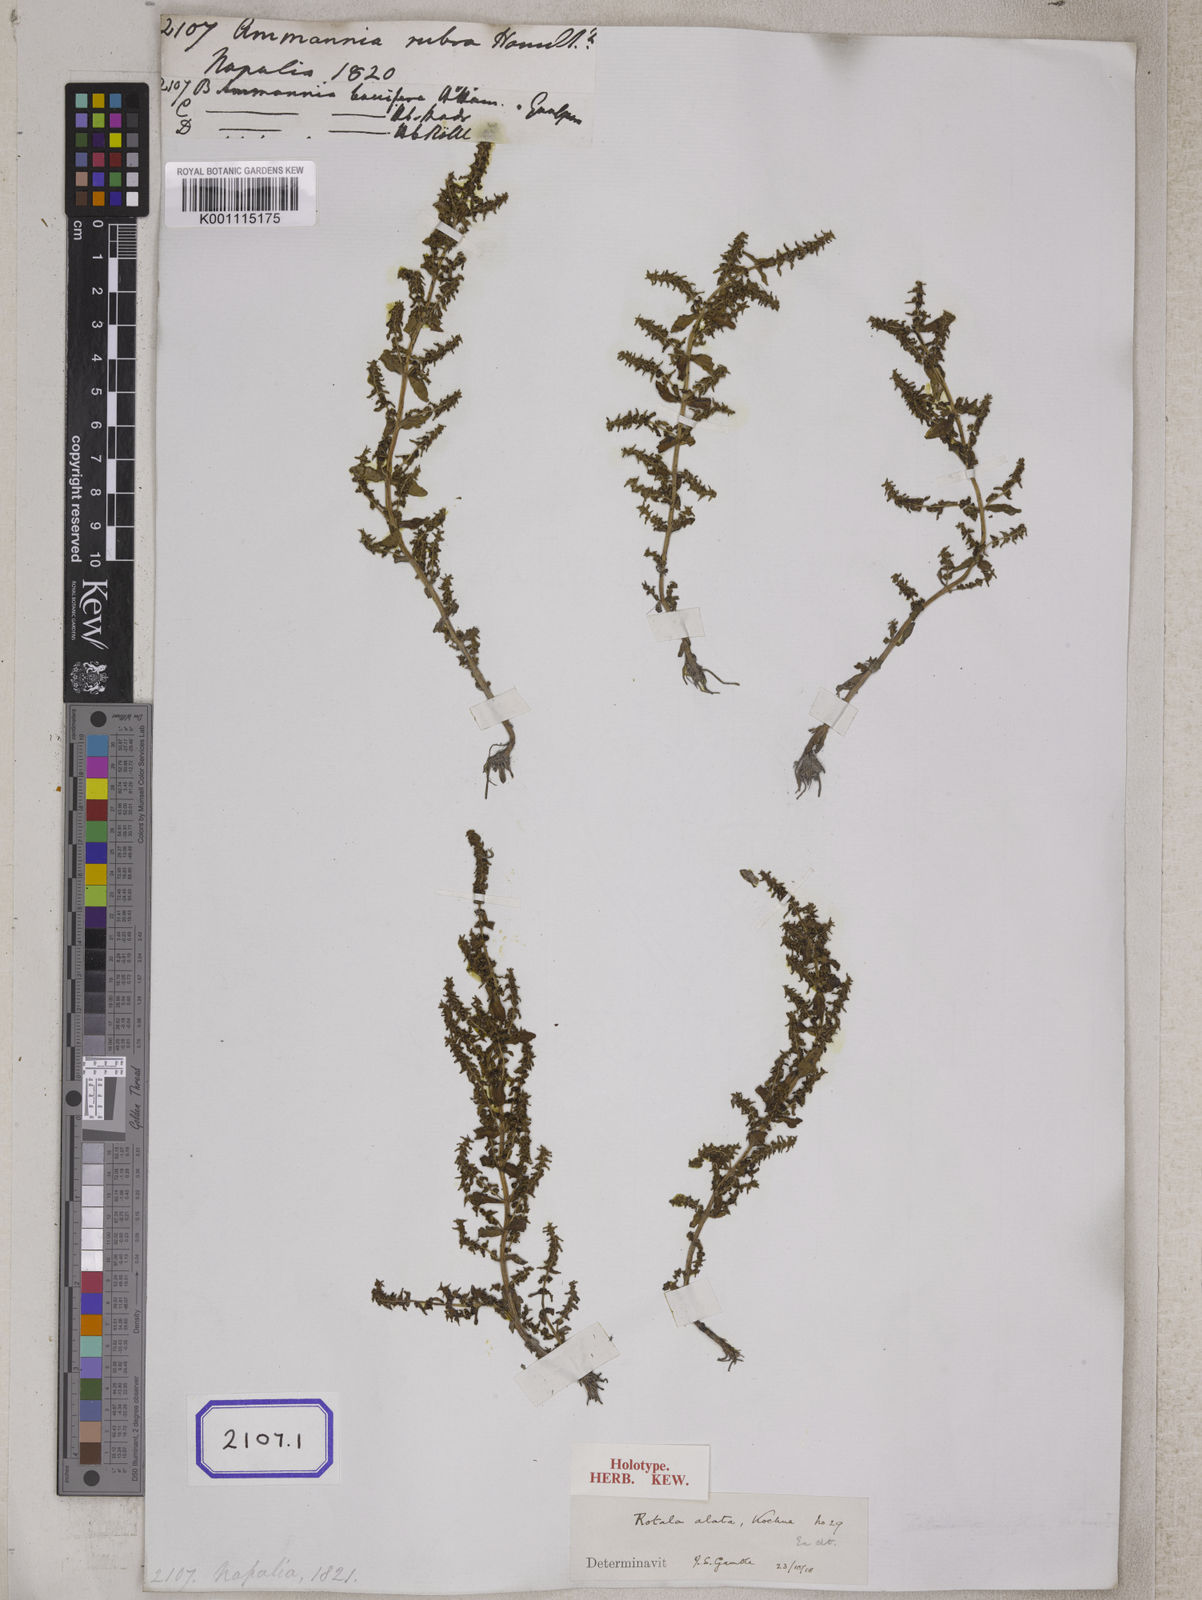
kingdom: Plantae
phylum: Tracheophyta
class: Magnoliopsida
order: Myrtales
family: Lythraceae
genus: Ammannia
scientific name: Ammannia
